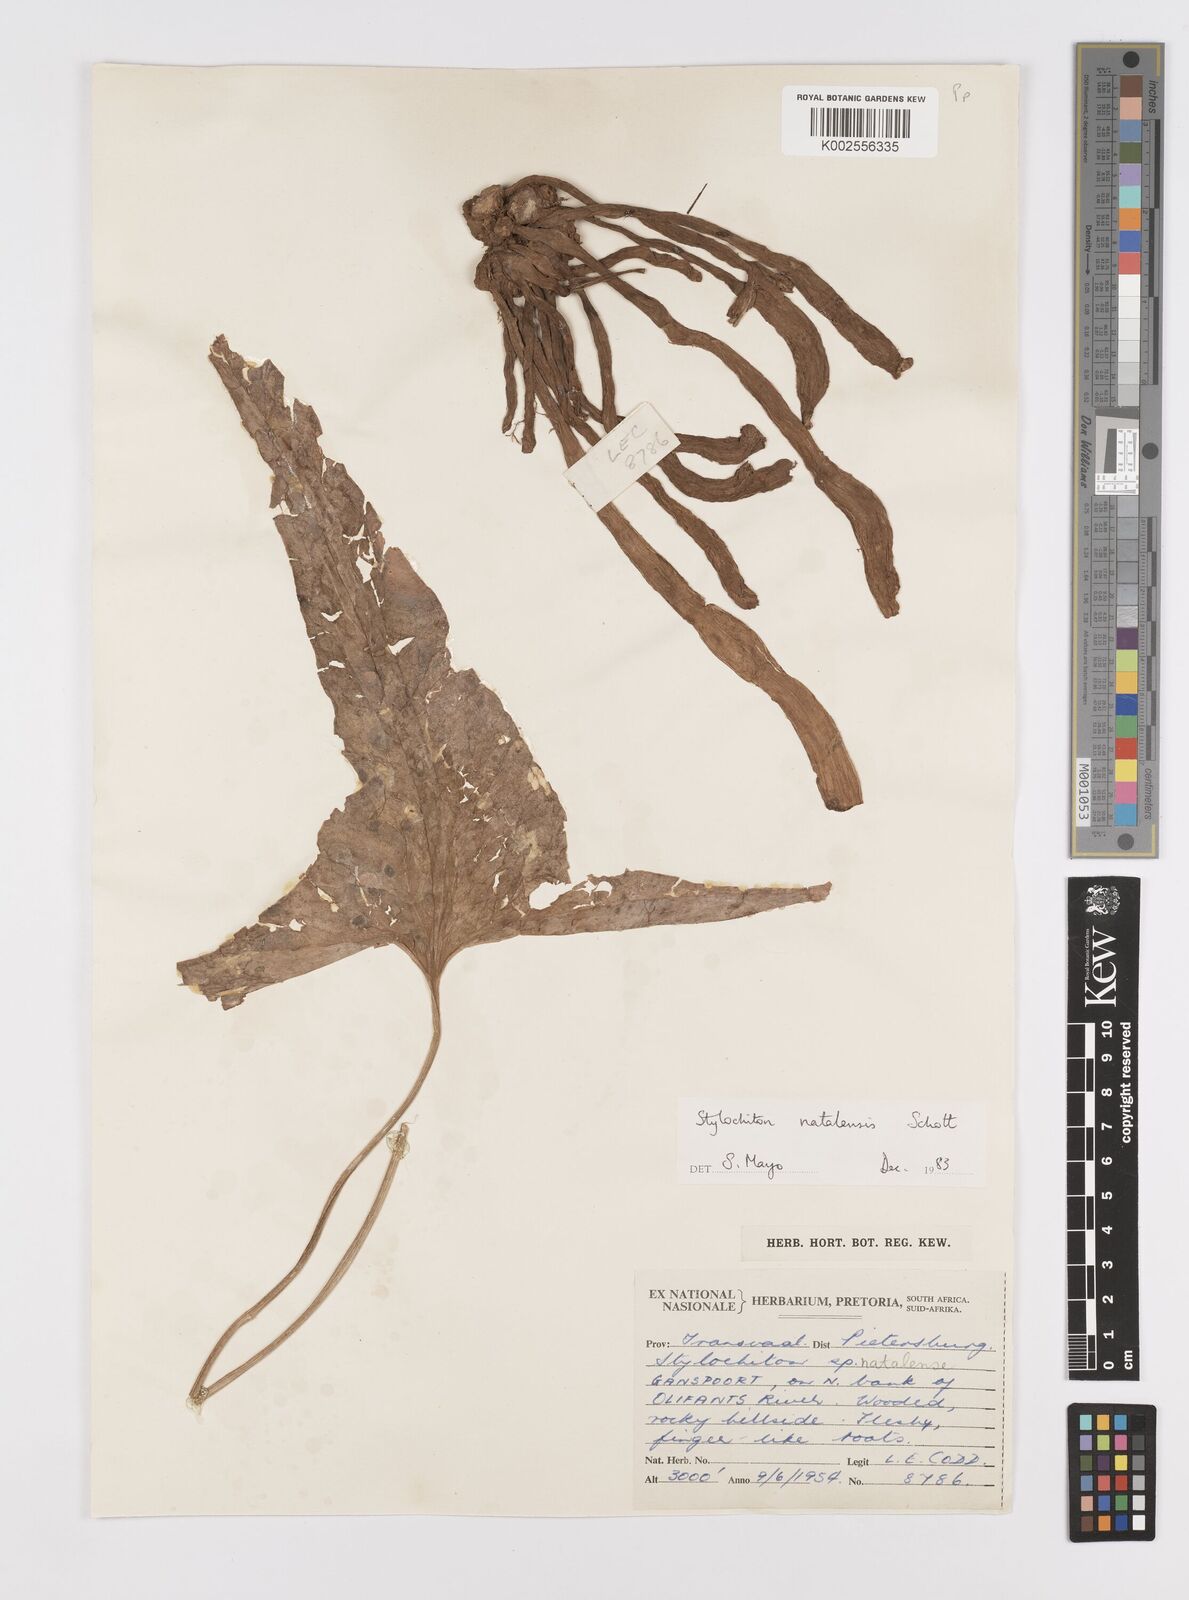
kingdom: Plantae
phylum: Tracheophyta
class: Liliopsida
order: Alismatales
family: Araceae
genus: Stylochaeton
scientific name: Stylochaeton natalense
